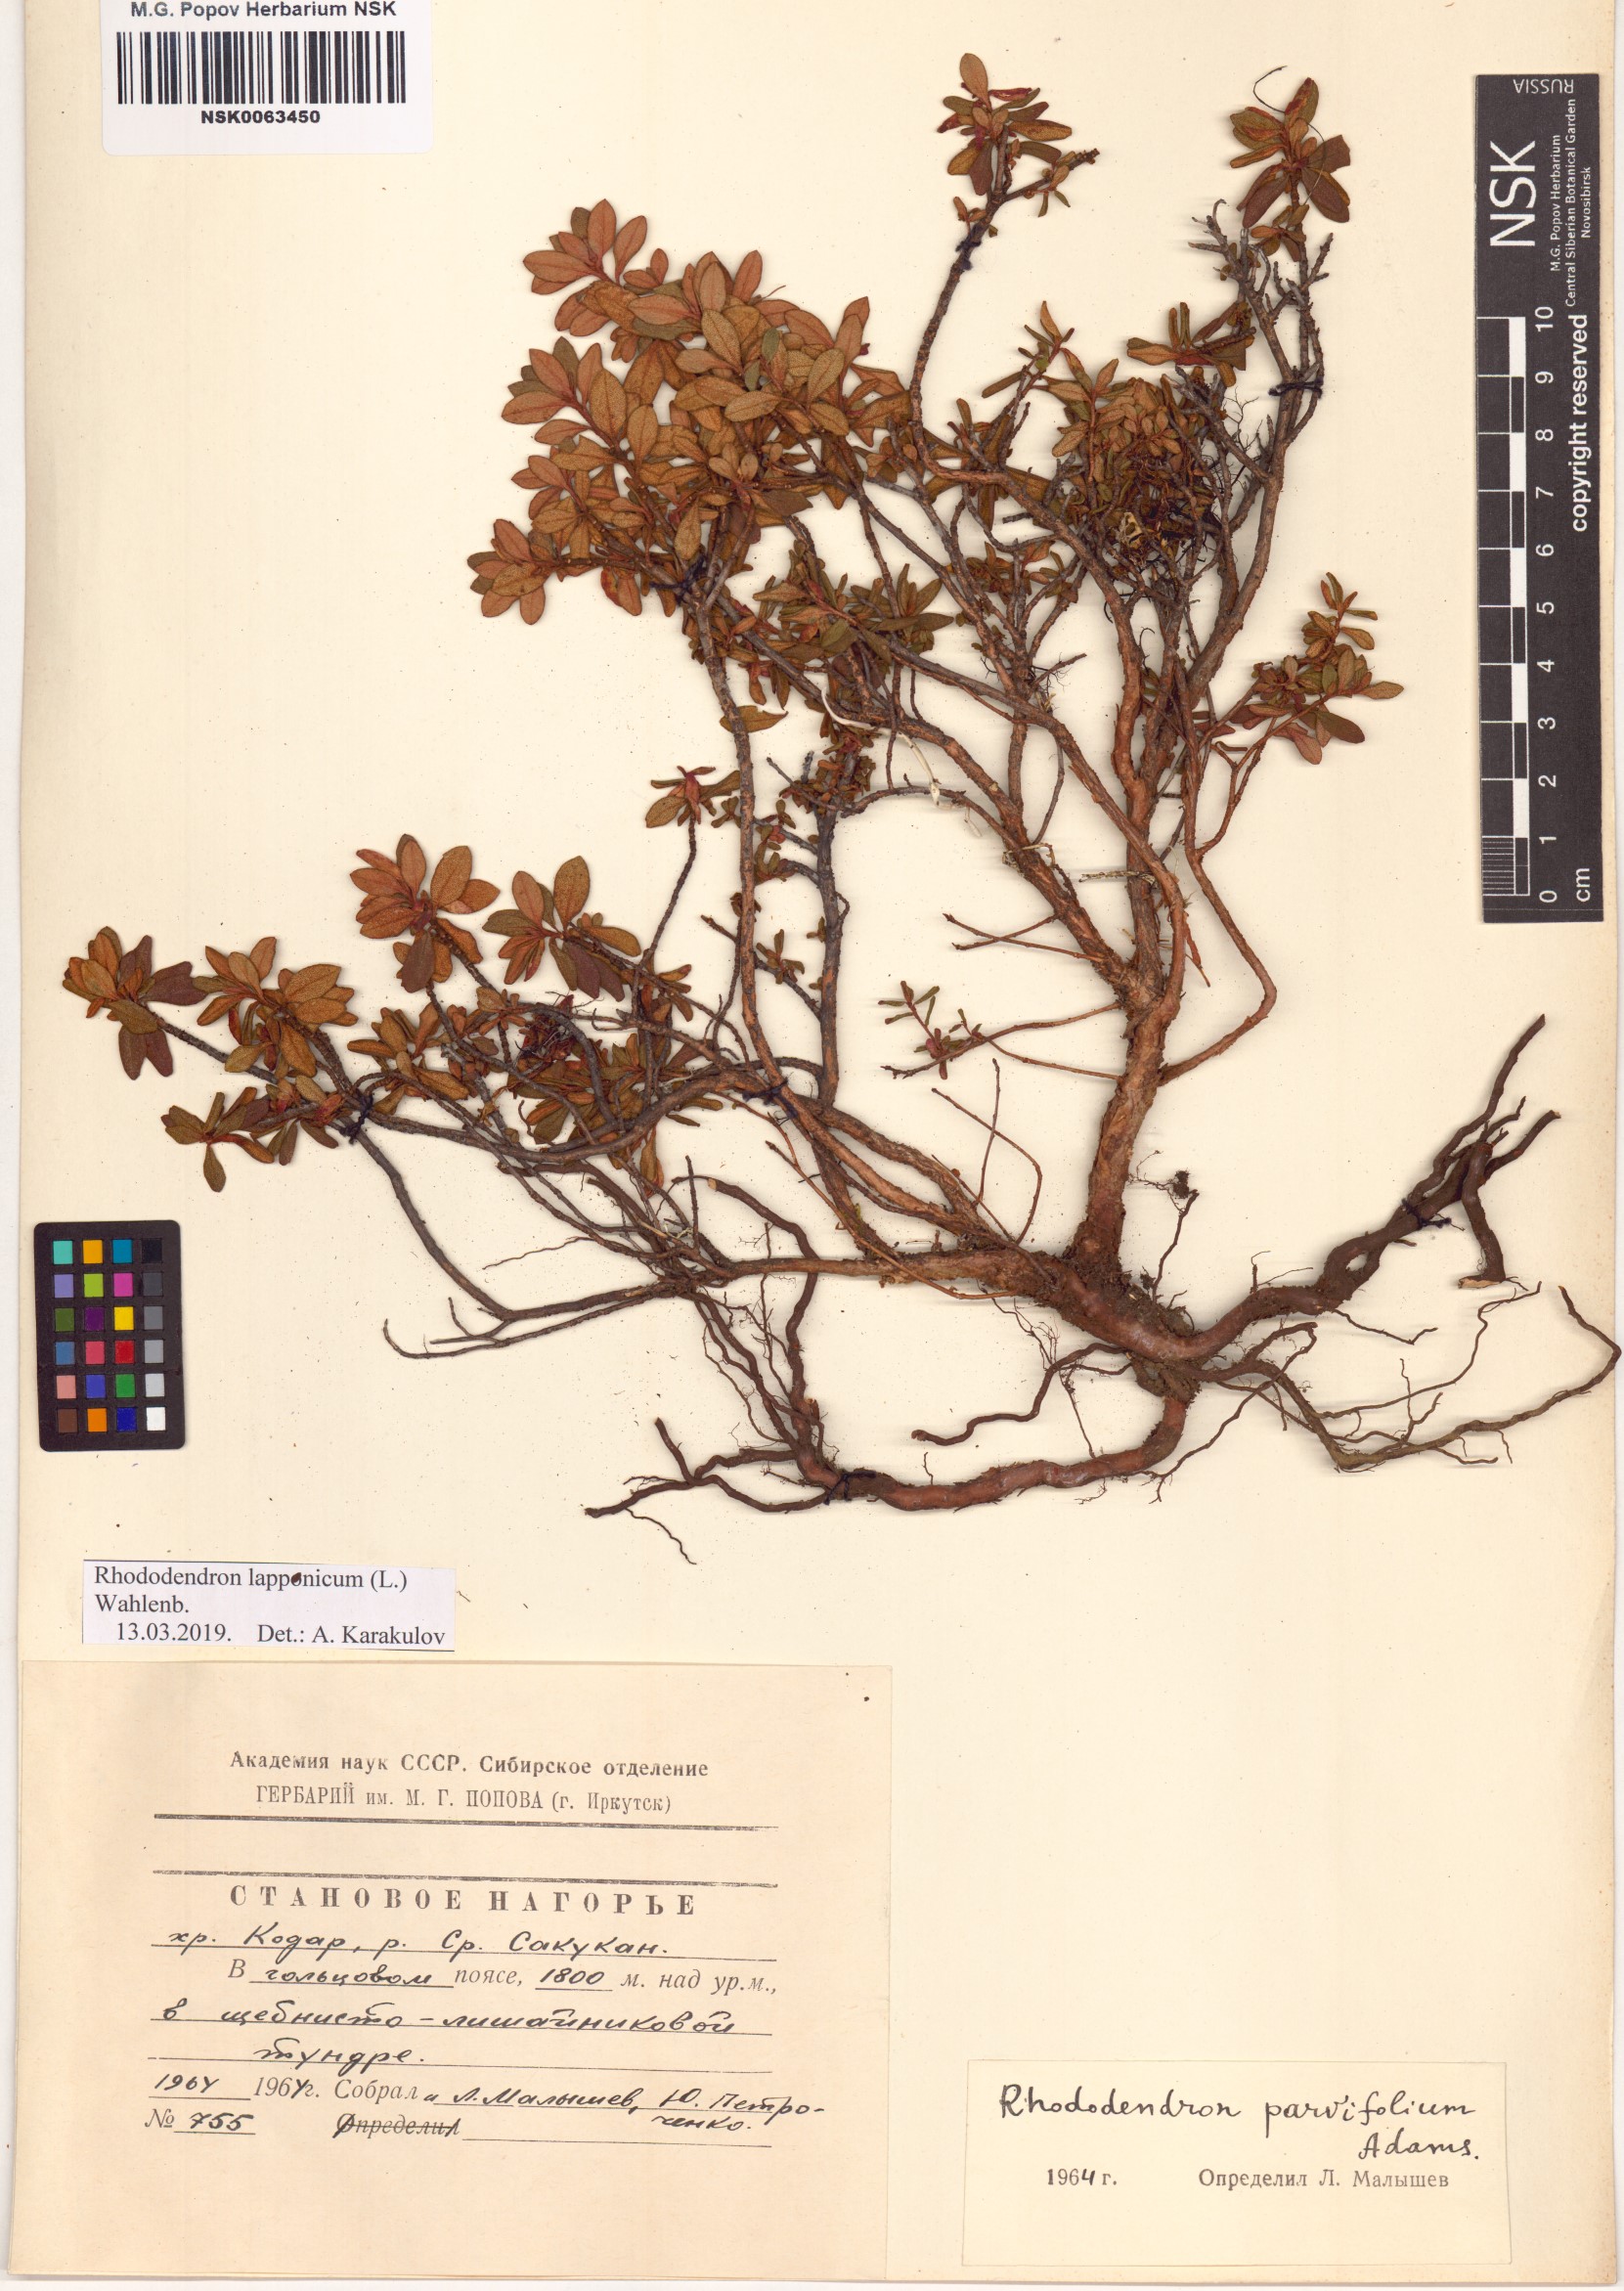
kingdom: Plantae
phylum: Tracheophyta
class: Magnoliopsida
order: Ericales
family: Ericaceae
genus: Rhododendron
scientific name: Rhododendron lapponicum
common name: Lapland rhododendron
